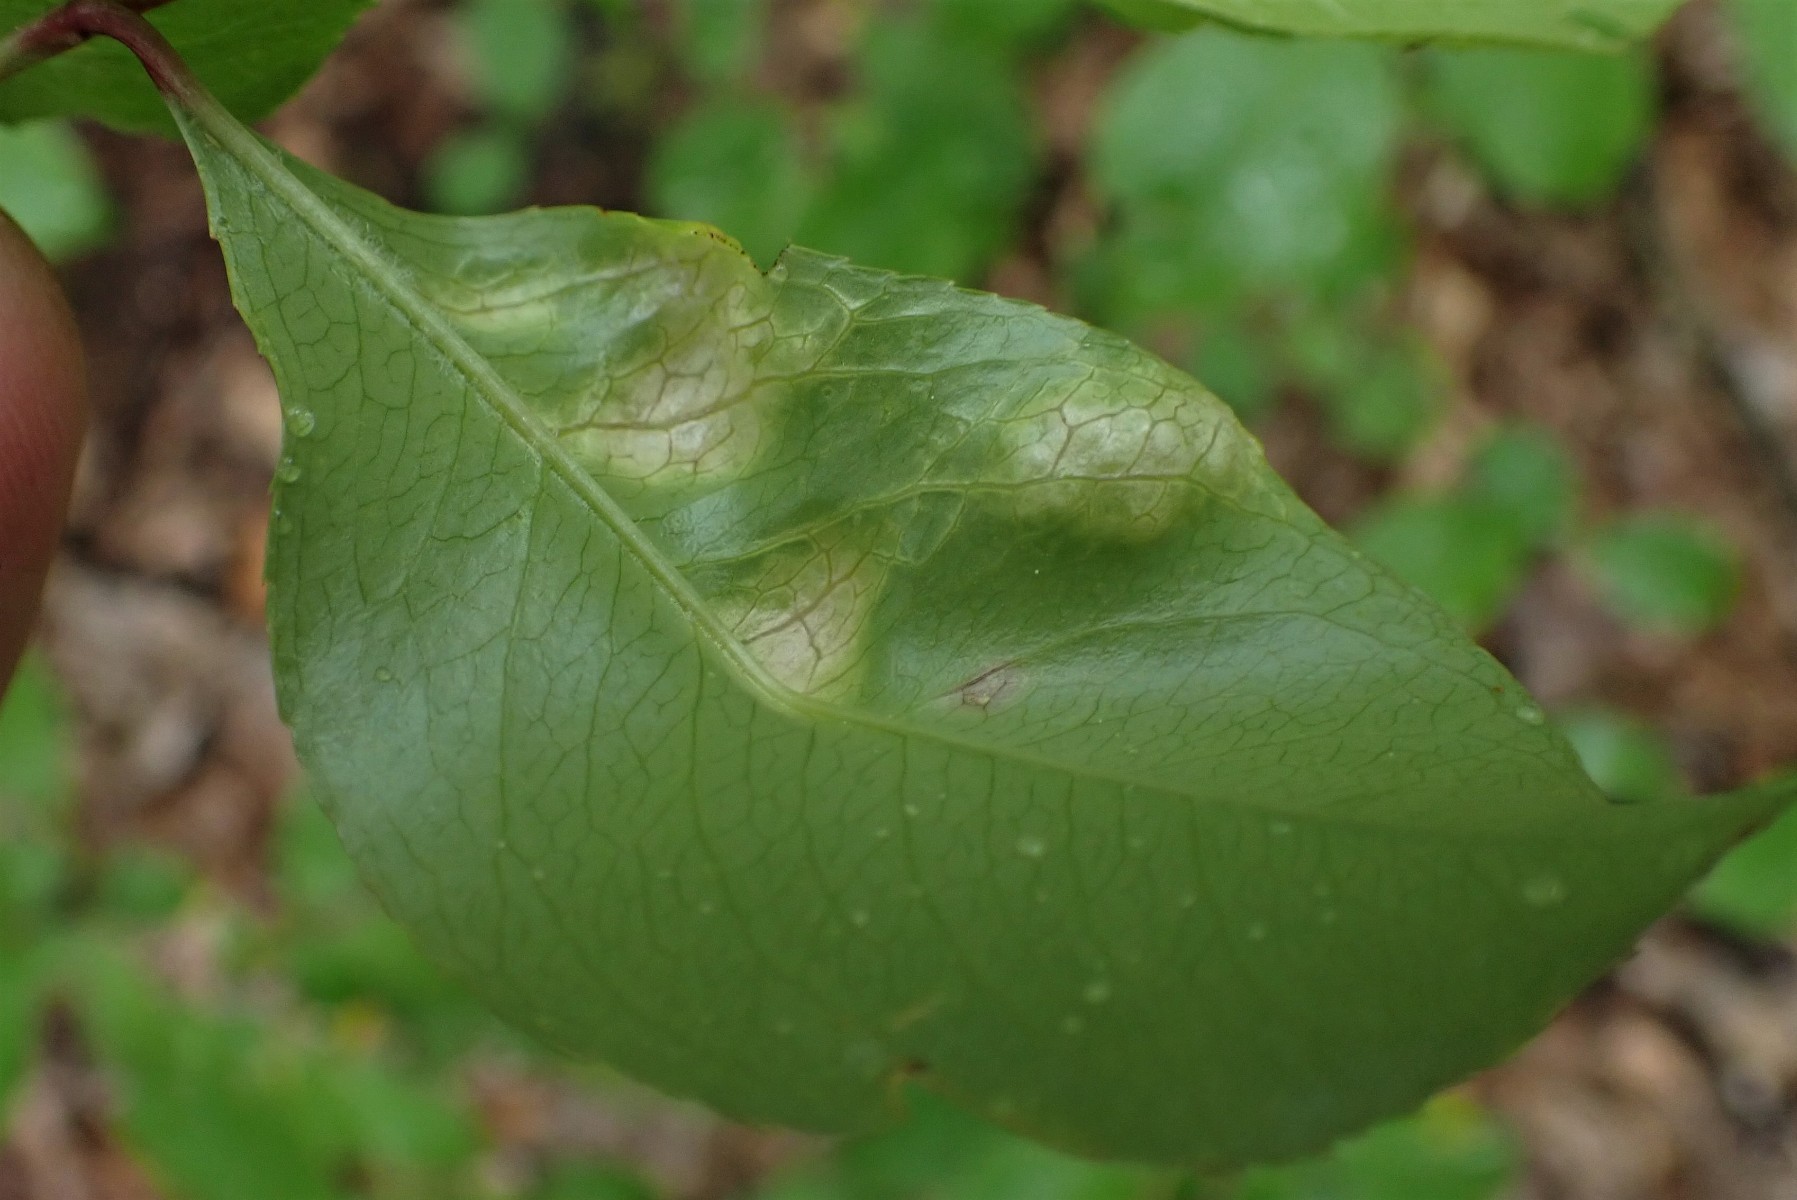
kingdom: Fungi
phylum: Ascomycota
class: Taphrinomycetes
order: Taphrinales
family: Taphrinaceae
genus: Taphrina
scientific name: Taphrina farlowii
